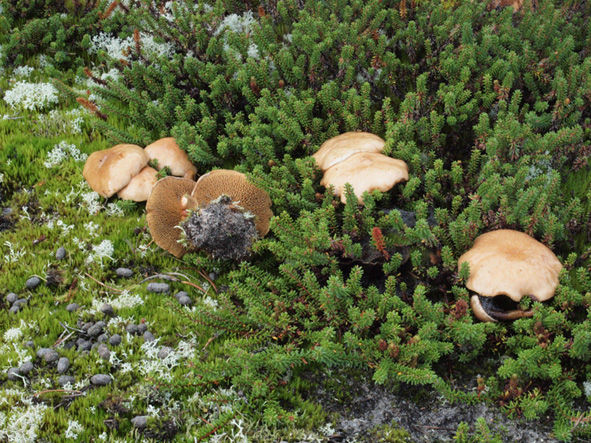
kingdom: Fungi
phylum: Basidiomycota
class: Agaricomycetes
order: Boletales
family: Suillaceae
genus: Suillus
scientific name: Suillus bovinus
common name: grovporet slimrørhat
